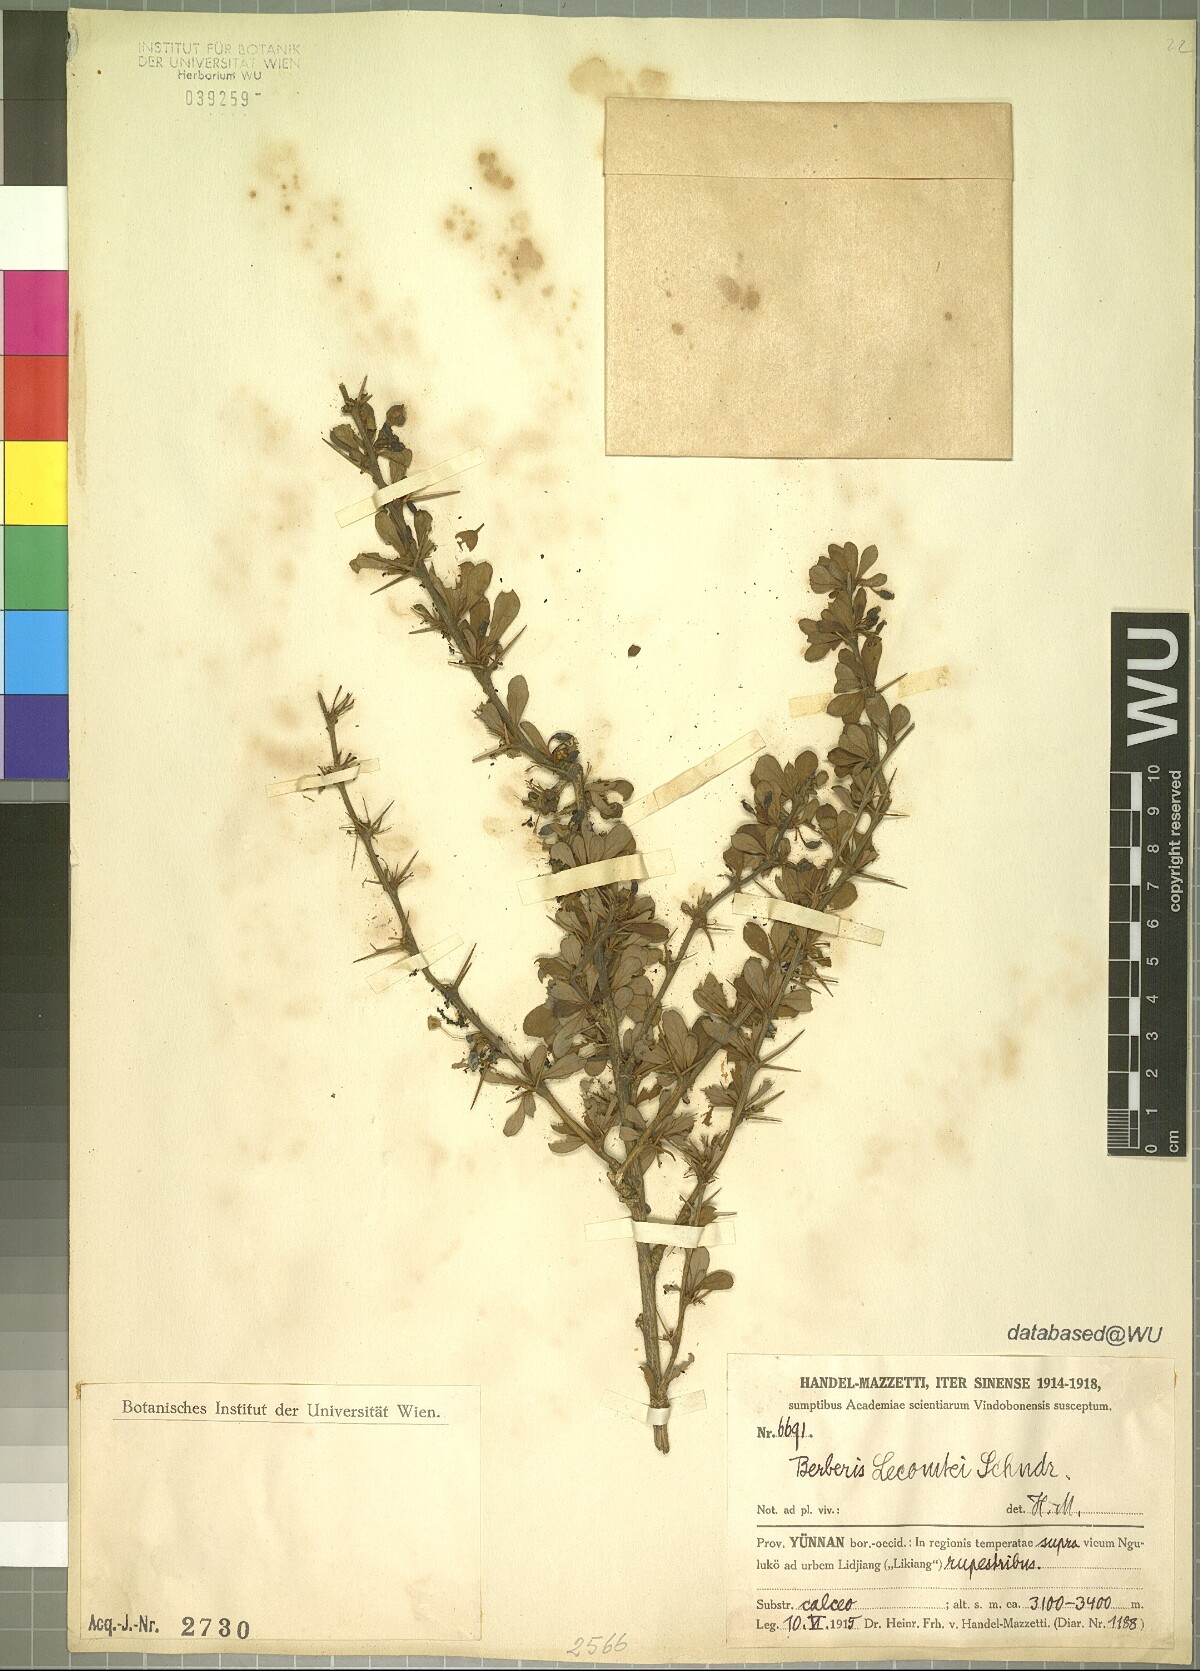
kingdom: Plantae
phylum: Tracheophyta
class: Magnoliopsida
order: Ranunculales
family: Berberidaceae
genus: Berberis
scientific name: Berberis lecomtei
